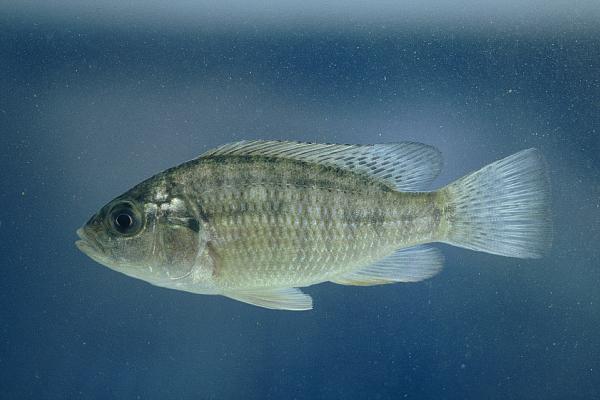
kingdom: Animalia
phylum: Chordata
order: Perciformes
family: Cichlidae
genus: Sargochromis
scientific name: Sargochromis giardi
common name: Pink happy
